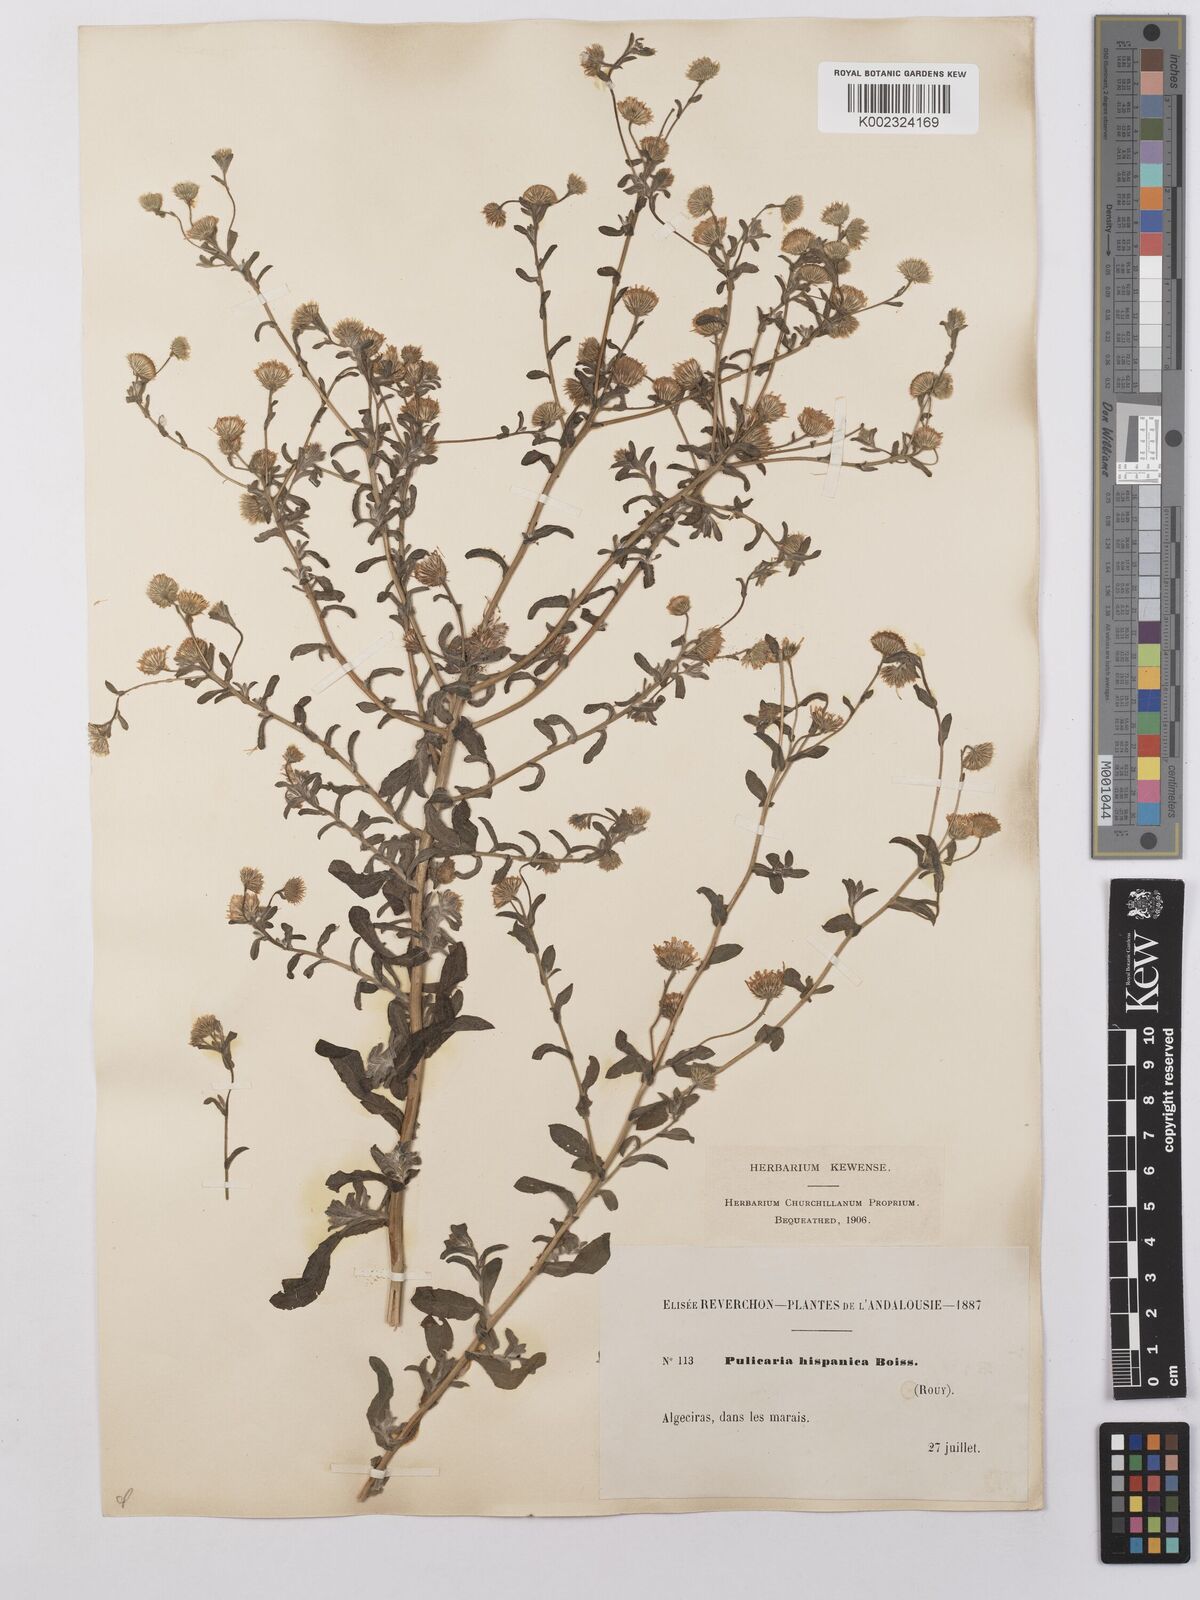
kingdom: Plantae
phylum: Tracheophyta
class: Magnoliopsida
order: Asterales
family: Asteraceae
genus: Pulicaria
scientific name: Pulicaria
